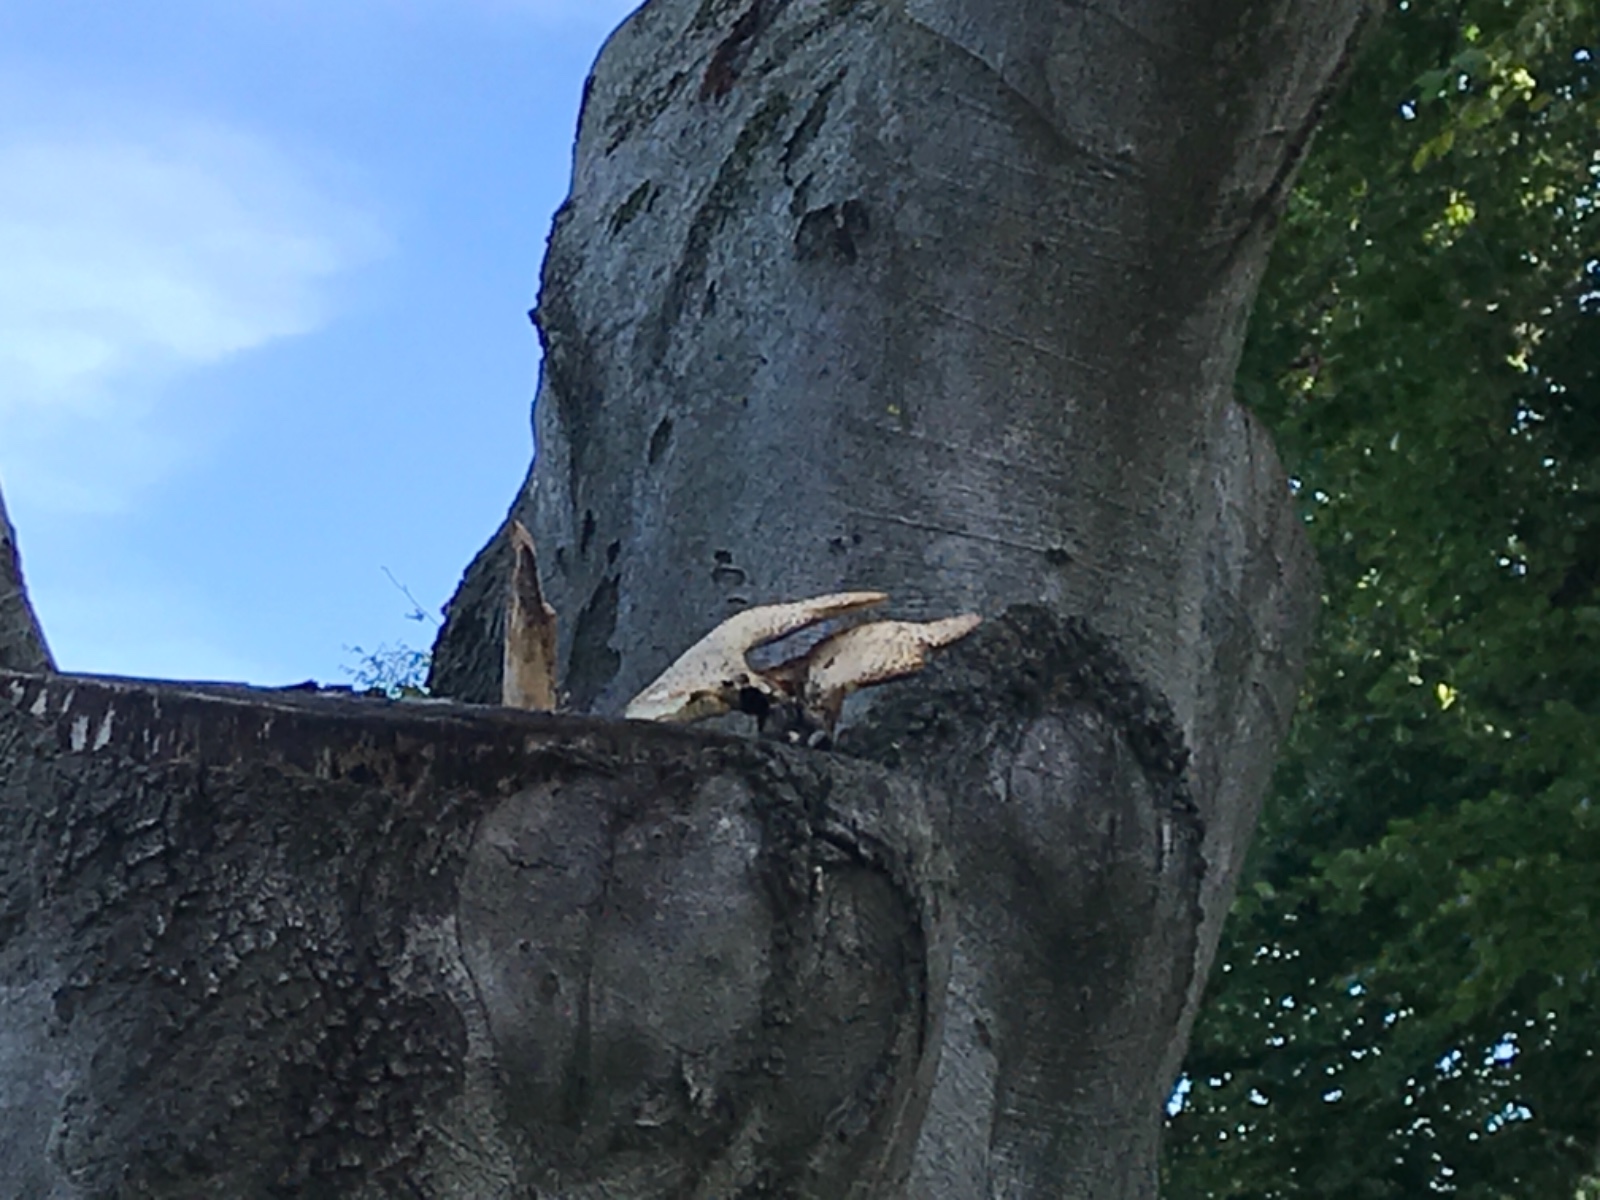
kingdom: Fungi
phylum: Basidiomycota
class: Agaricomycetes
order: Polyporales
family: Polyporaceae
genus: Cerioporus
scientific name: Cerioporus squamosus
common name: skællet stilkporesvamp
